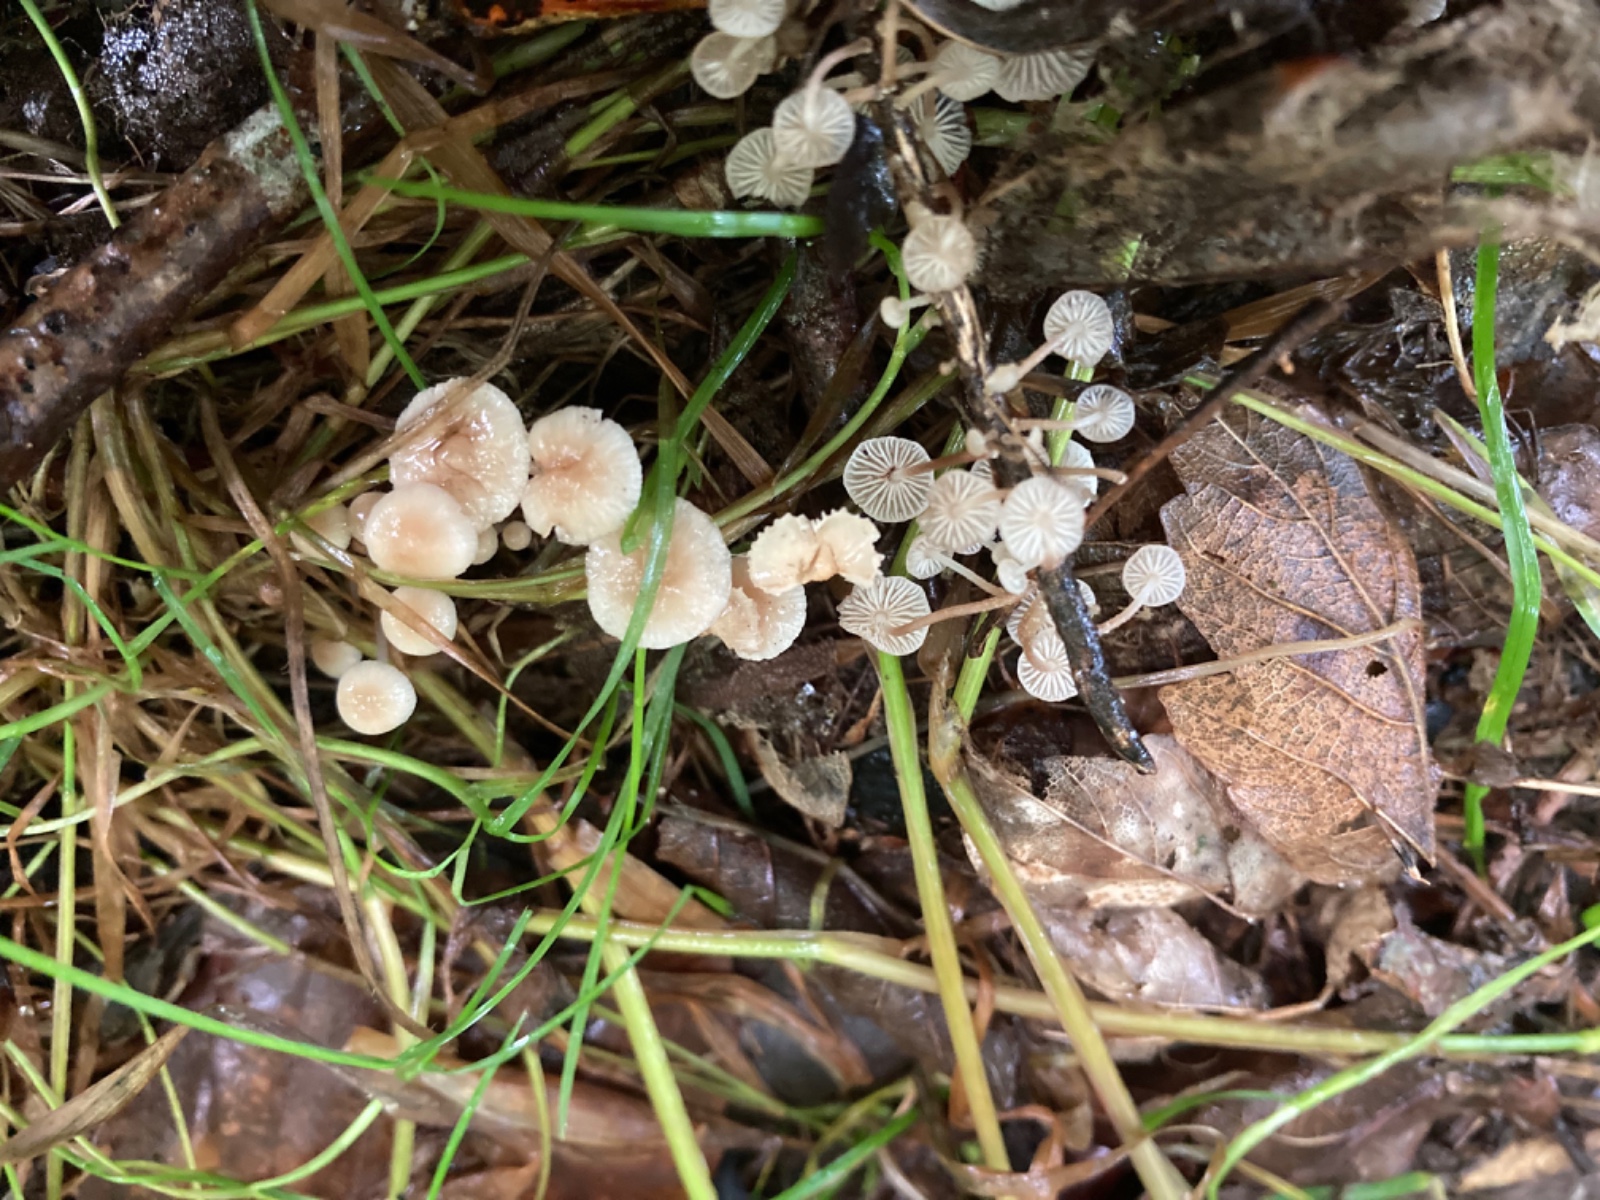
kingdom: Fungi
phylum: Basidiomycota
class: Agaricomycetes
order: Agaricales
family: Omphalotaceae
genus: Collybiopsis
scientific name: Collybiopsis ramealis
